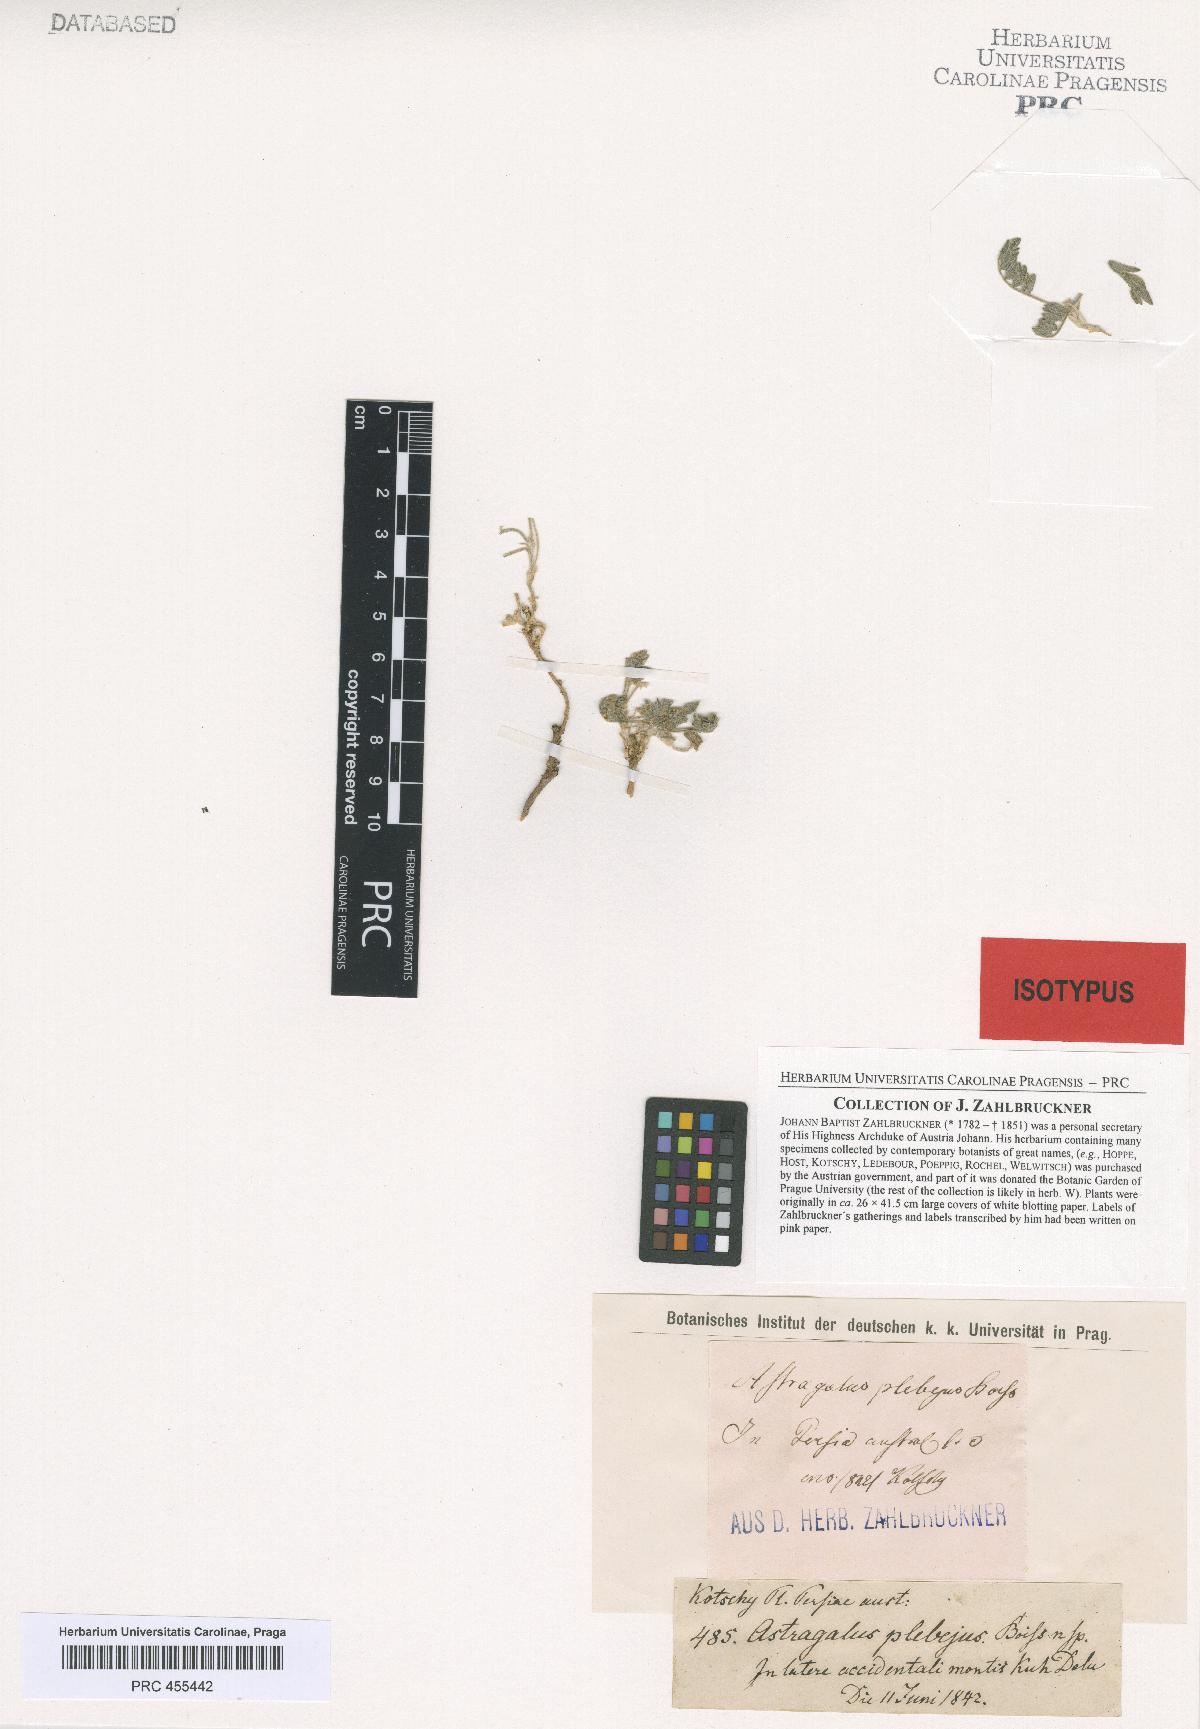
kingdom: Plantae
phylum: Tracheophyta
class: Magnoliopsida
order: Fabales
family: Fabaceae
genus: Astragalus
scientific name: Astragalus plebeius
